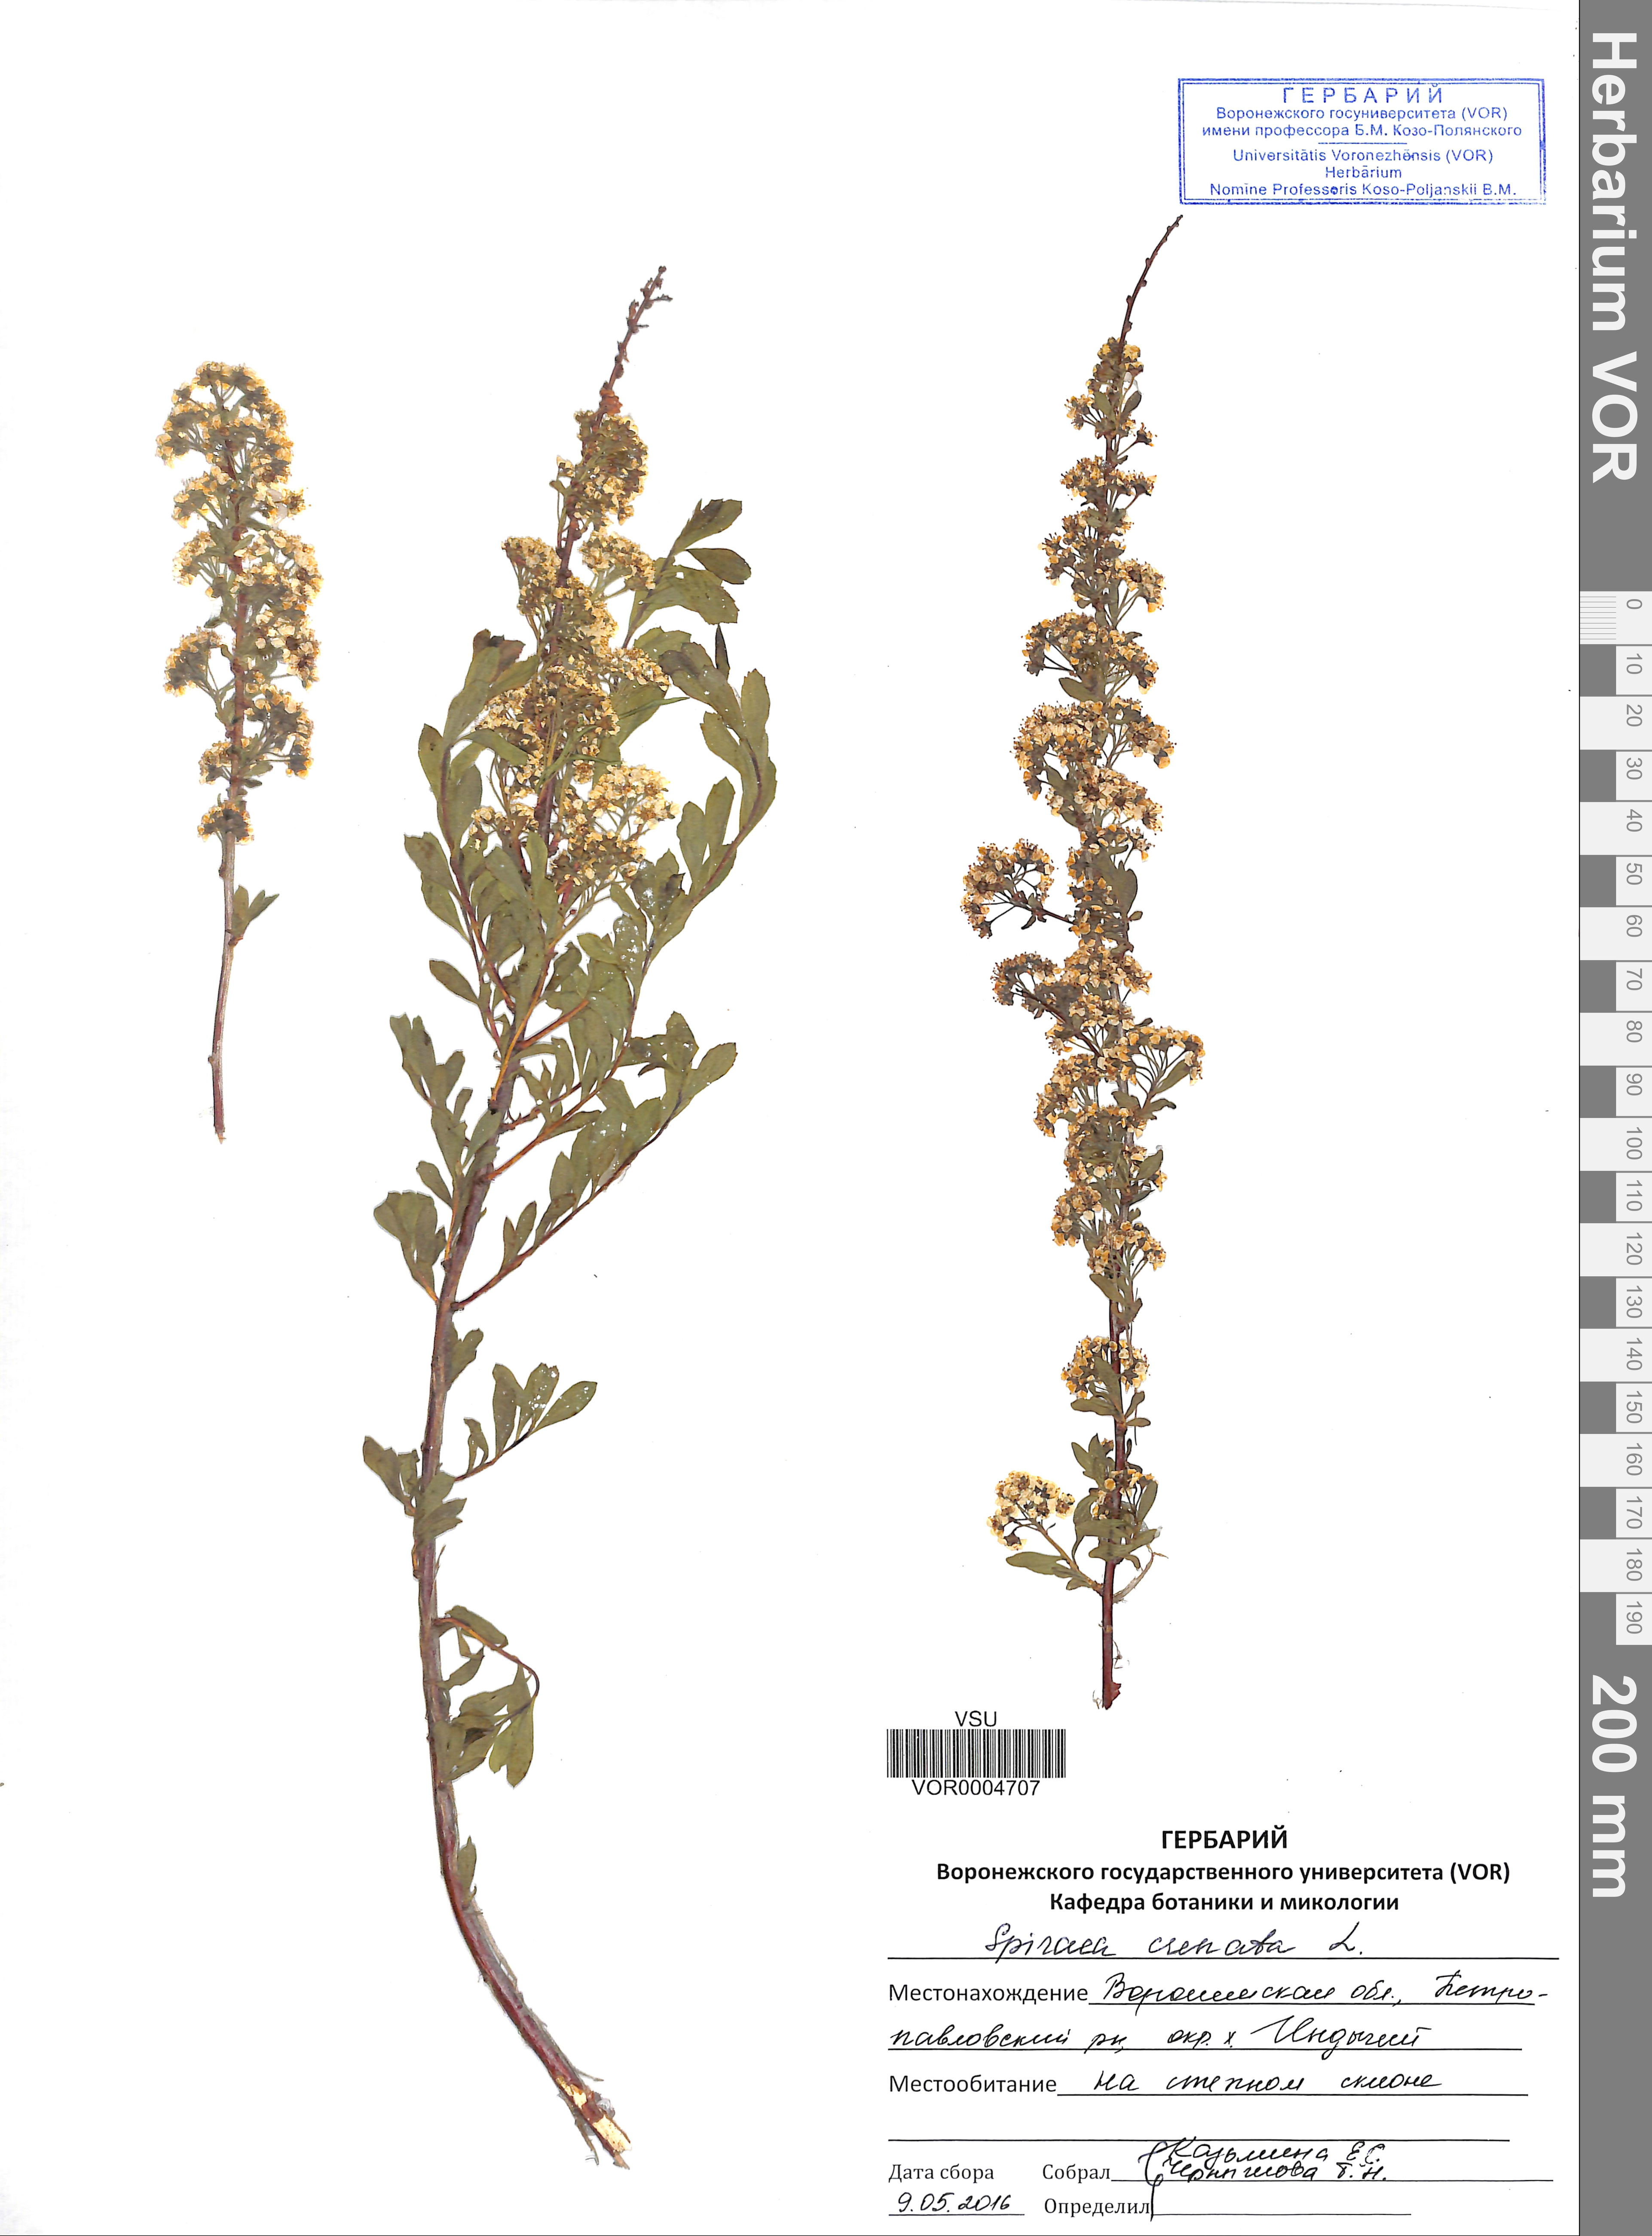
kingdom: Plantae
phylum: Tracheophyta
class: Magnoliopsida
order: Rosales
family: Rosaceae
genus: Spiraea
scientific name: Spiraea crenata
